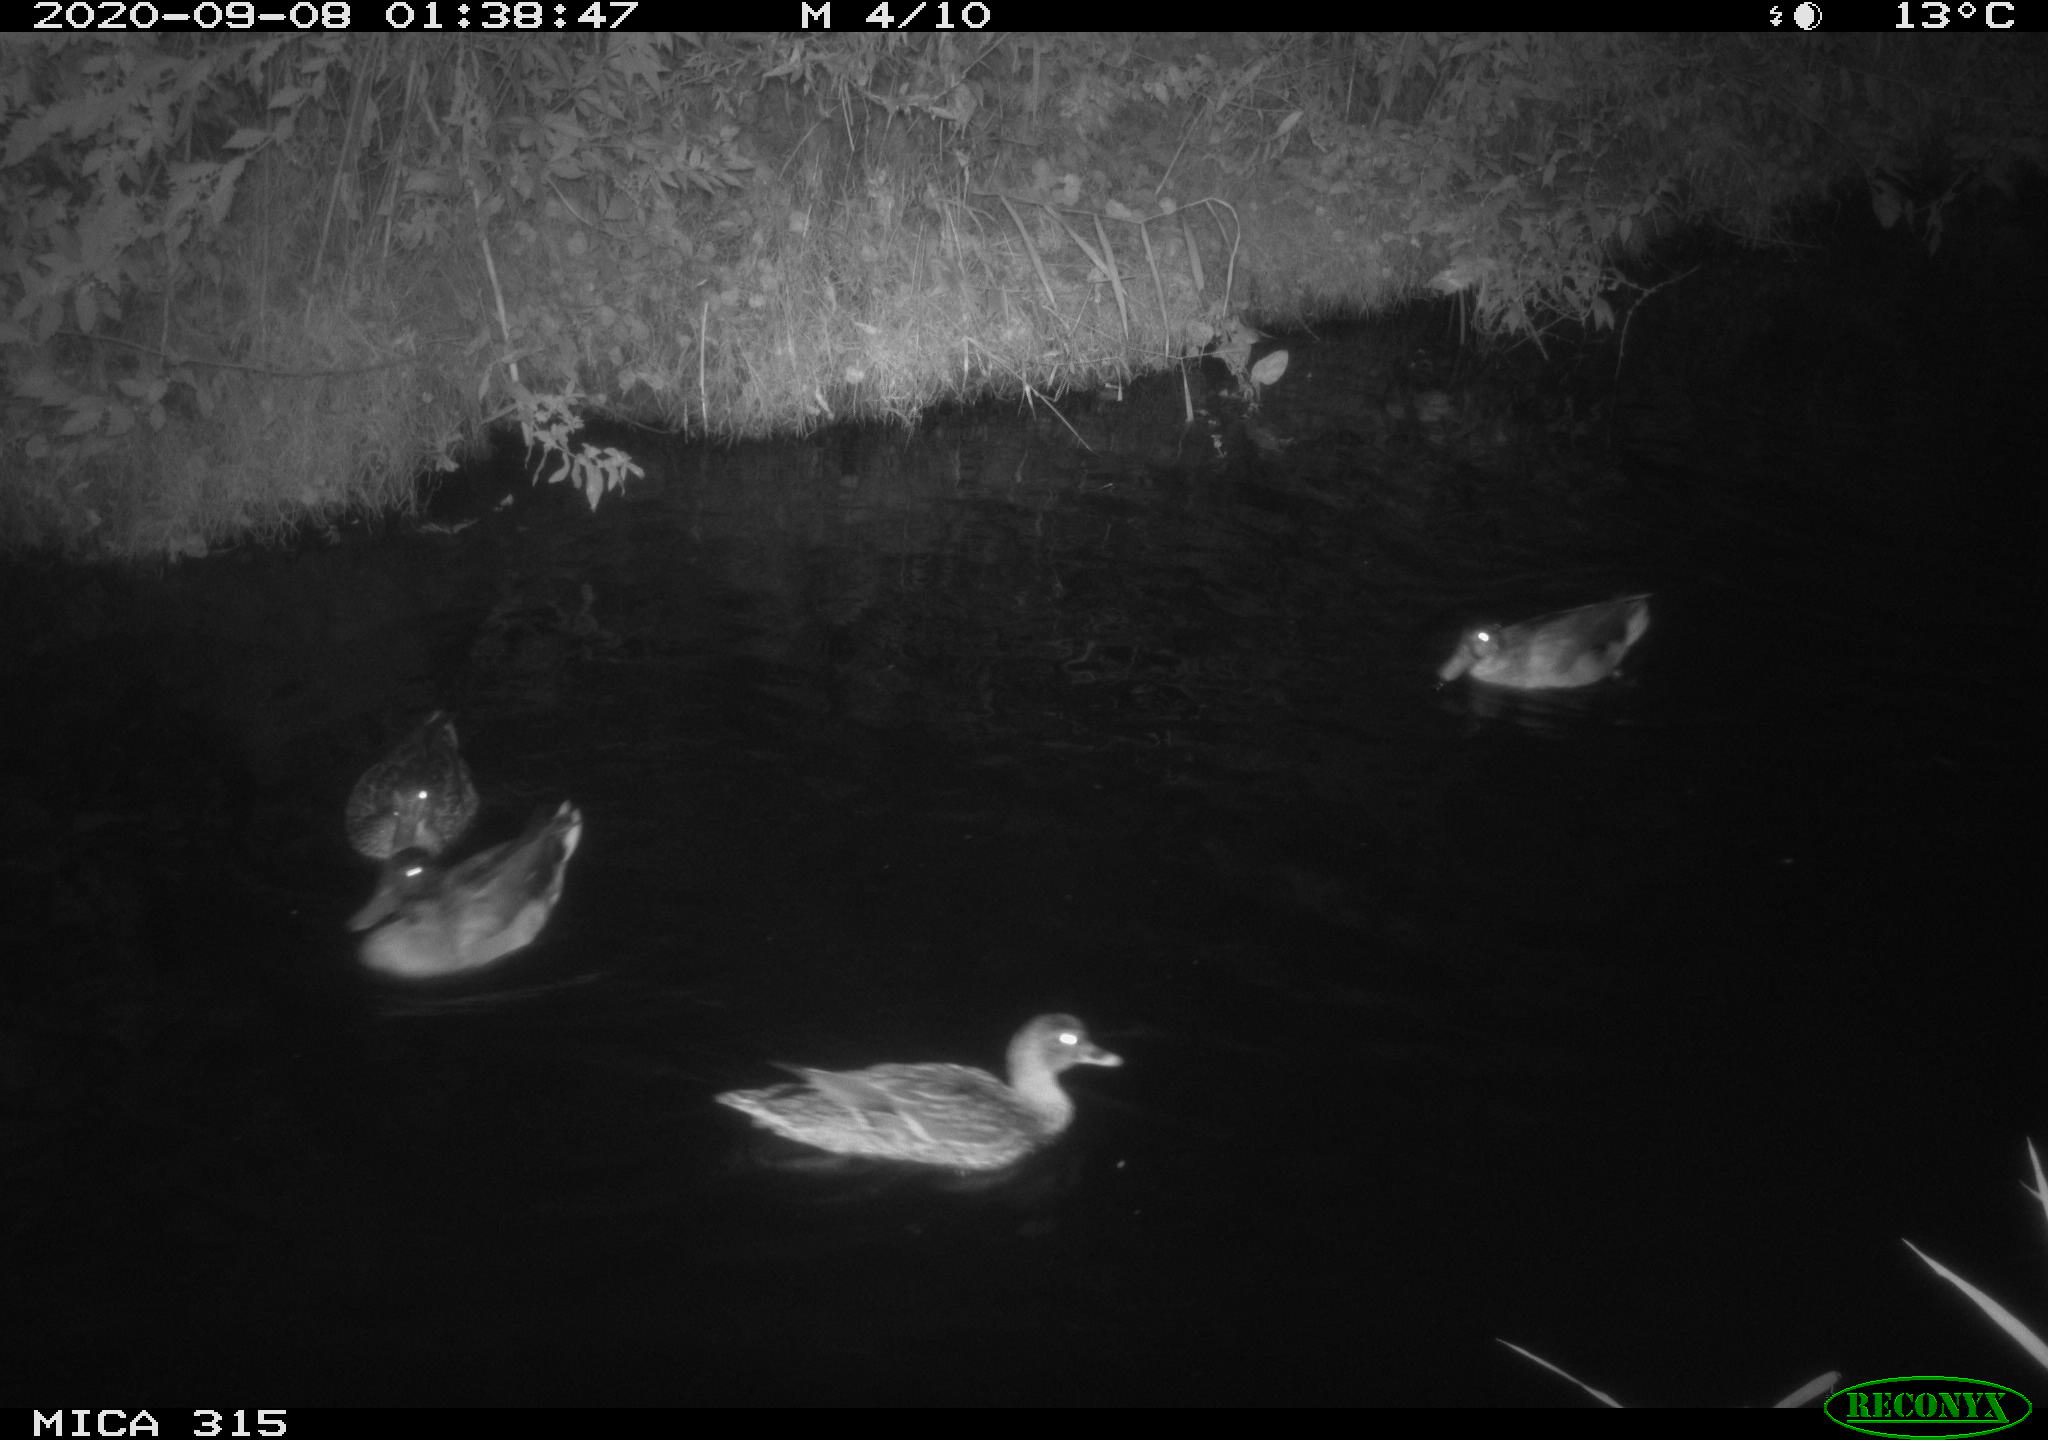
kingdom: Animalia
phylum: Chordata
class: Aves
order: Anseriformes
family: Anatidae
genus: Anas
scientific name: Anas platyrhynchos
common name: Mallard
